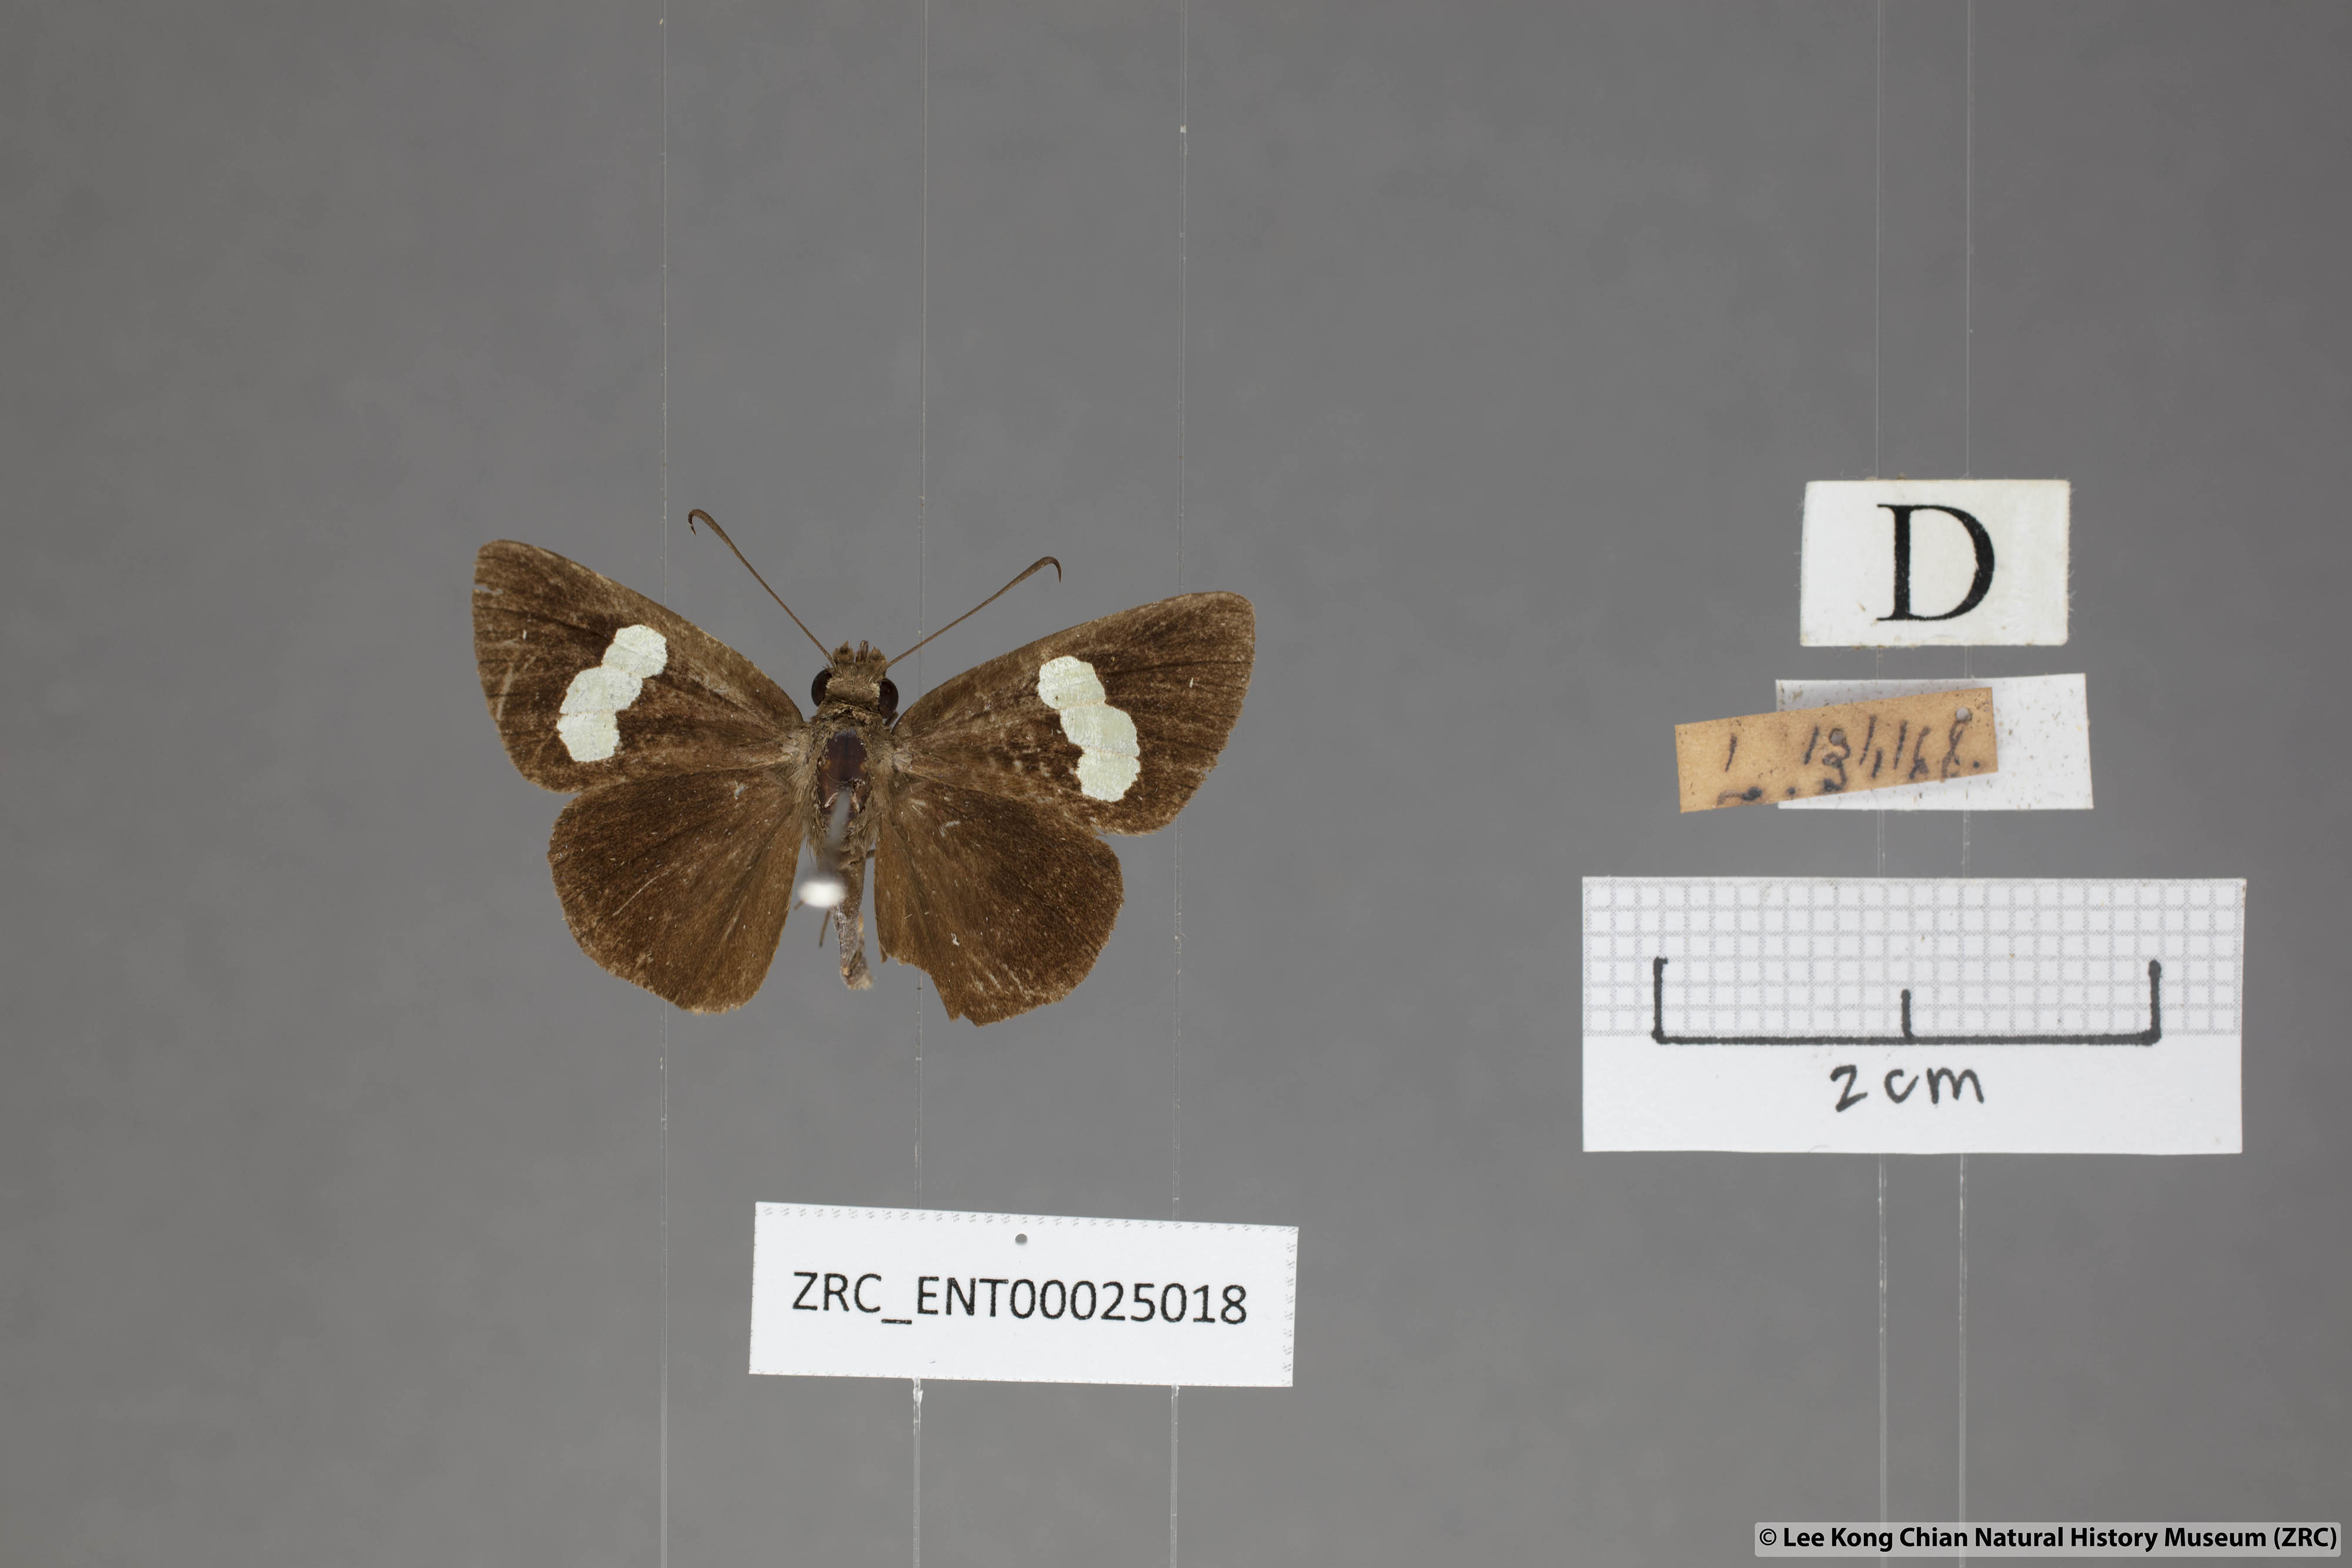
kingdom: Animalia
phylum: Arthropoda
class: Insecta
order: Lepidoptera
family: Hesperiidae
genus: Notocrypta
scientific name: Notocrypta paralysos
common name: Common banded demon
